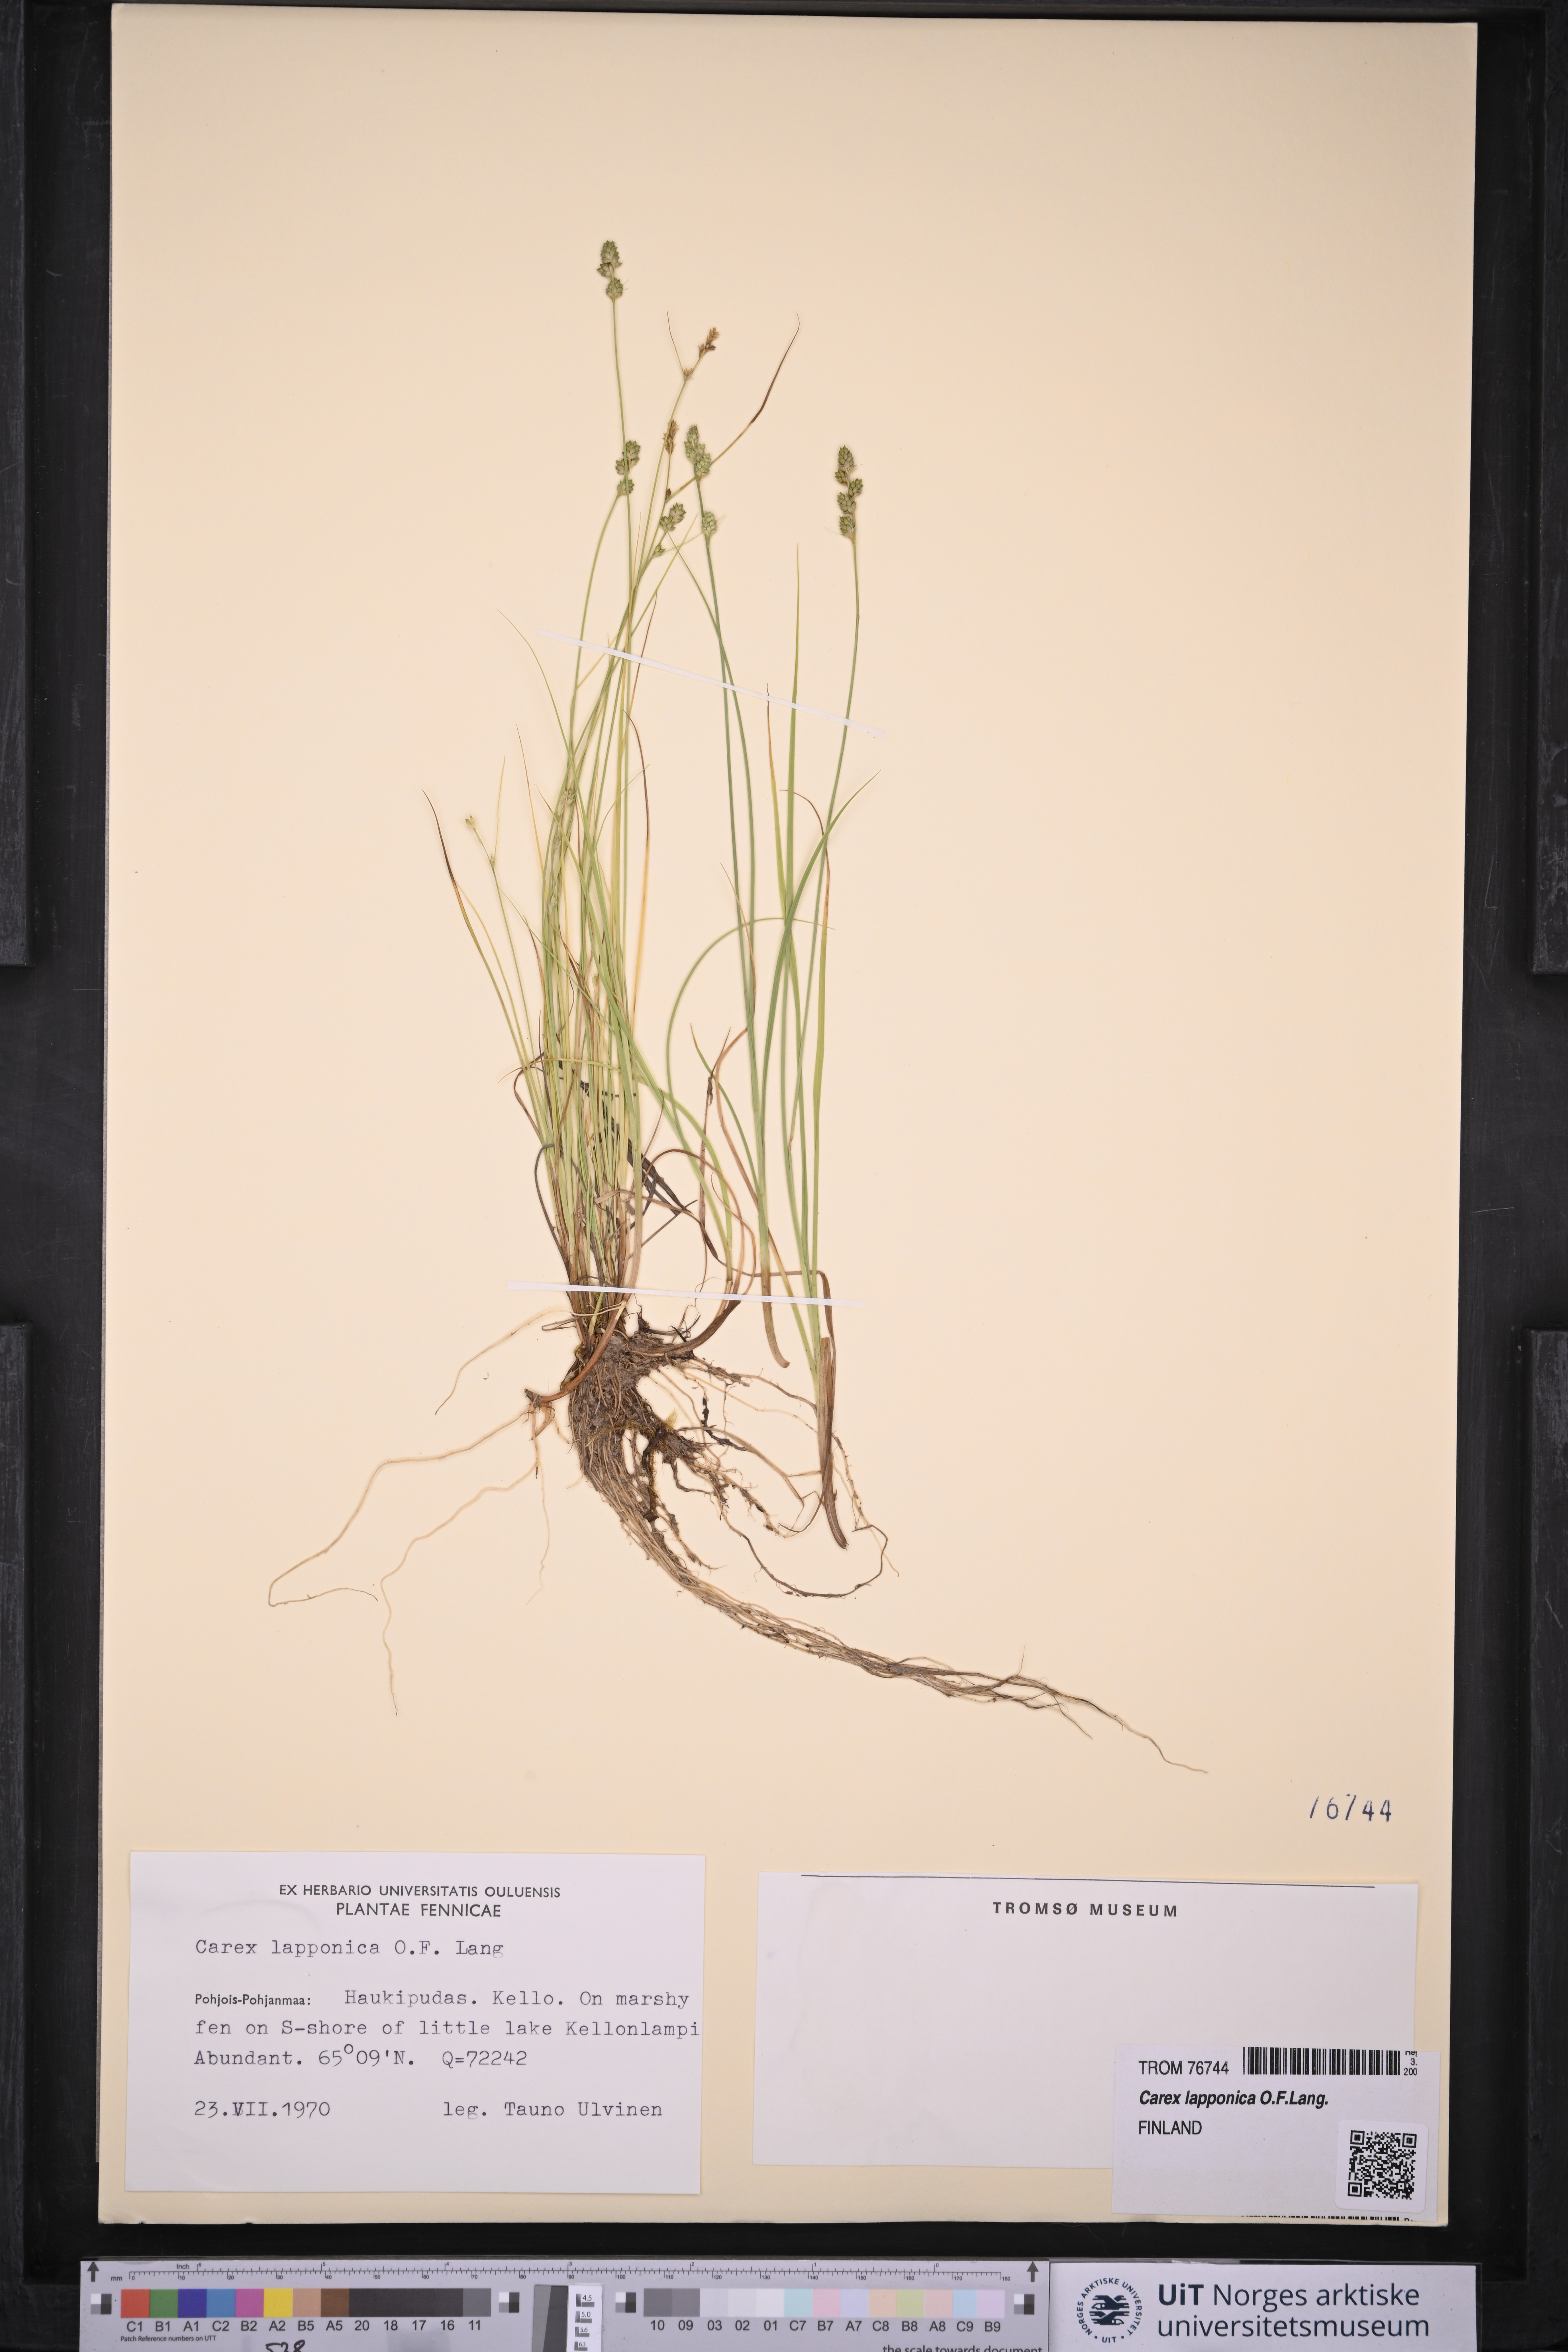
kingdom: Plantae
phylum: Tracheophyta
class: Liliopsida
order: Poales
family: Cyperaceae
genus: Carex
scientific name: Carex lapponica
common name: Lapland sedge
